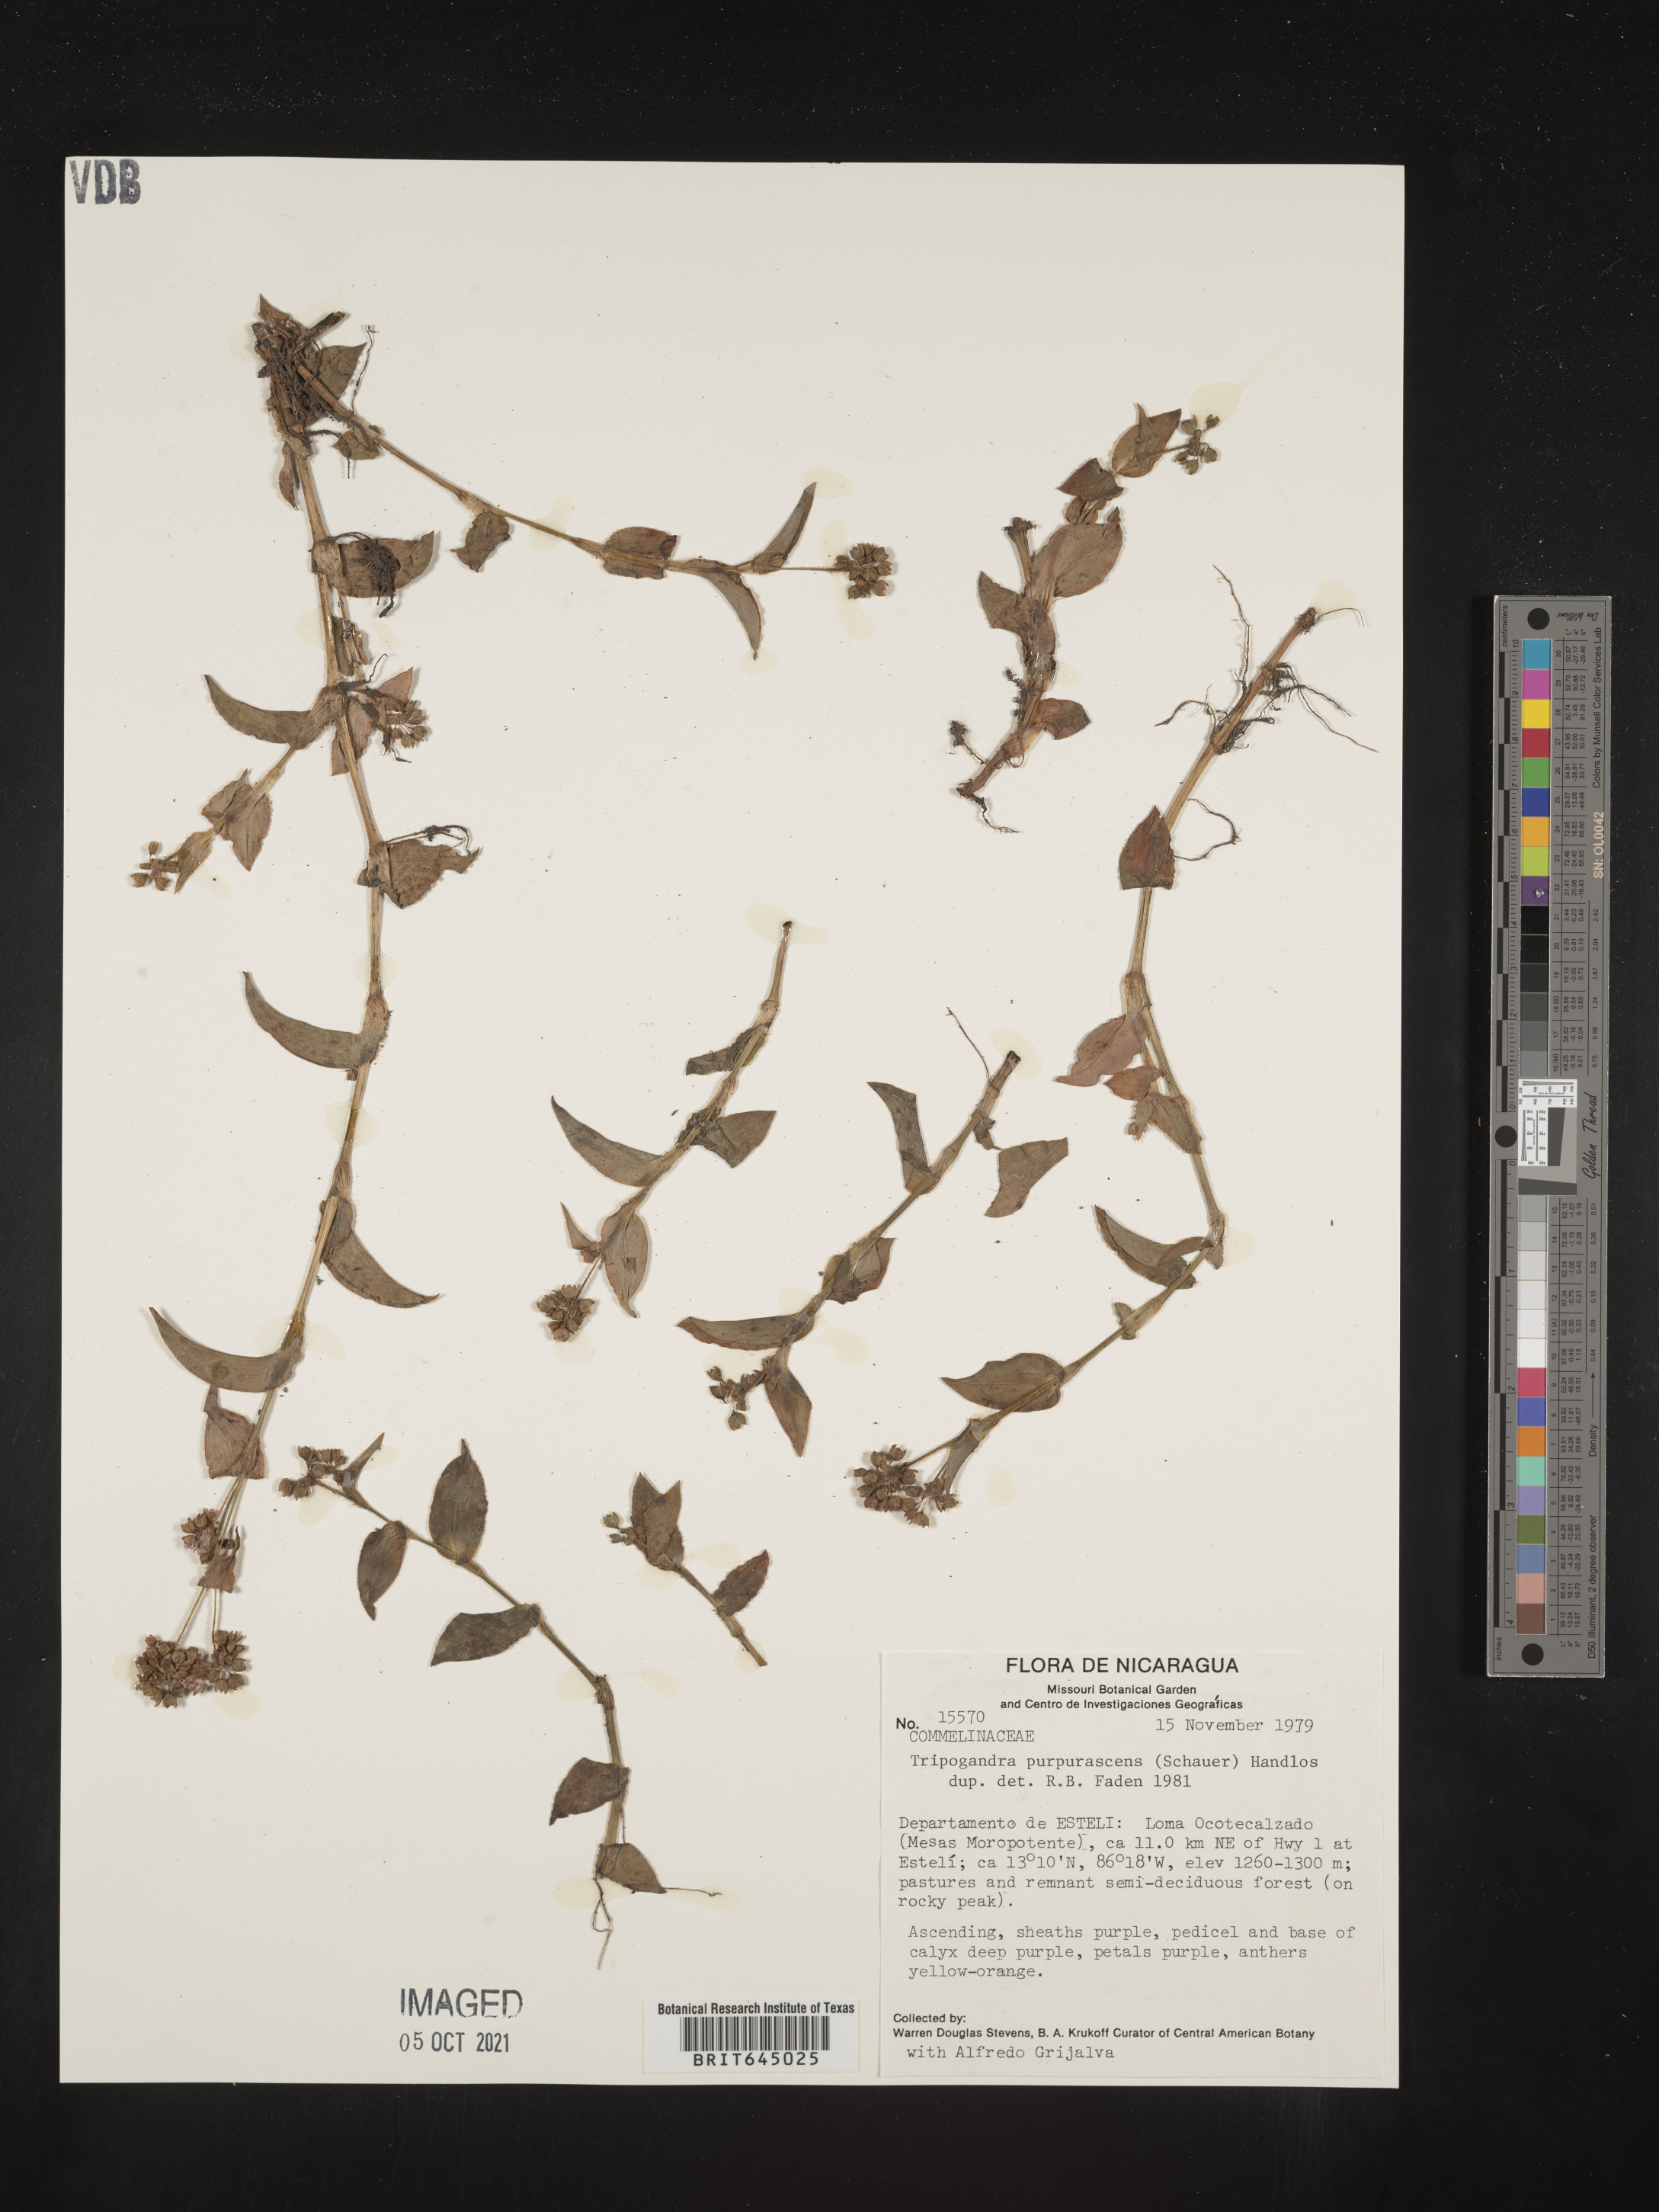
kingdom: Plantae
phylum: Tracheophyta
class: Liliopsida
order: Commelinales
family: Commelinaceae
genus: Callisia
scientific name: Callisia purpurascens
